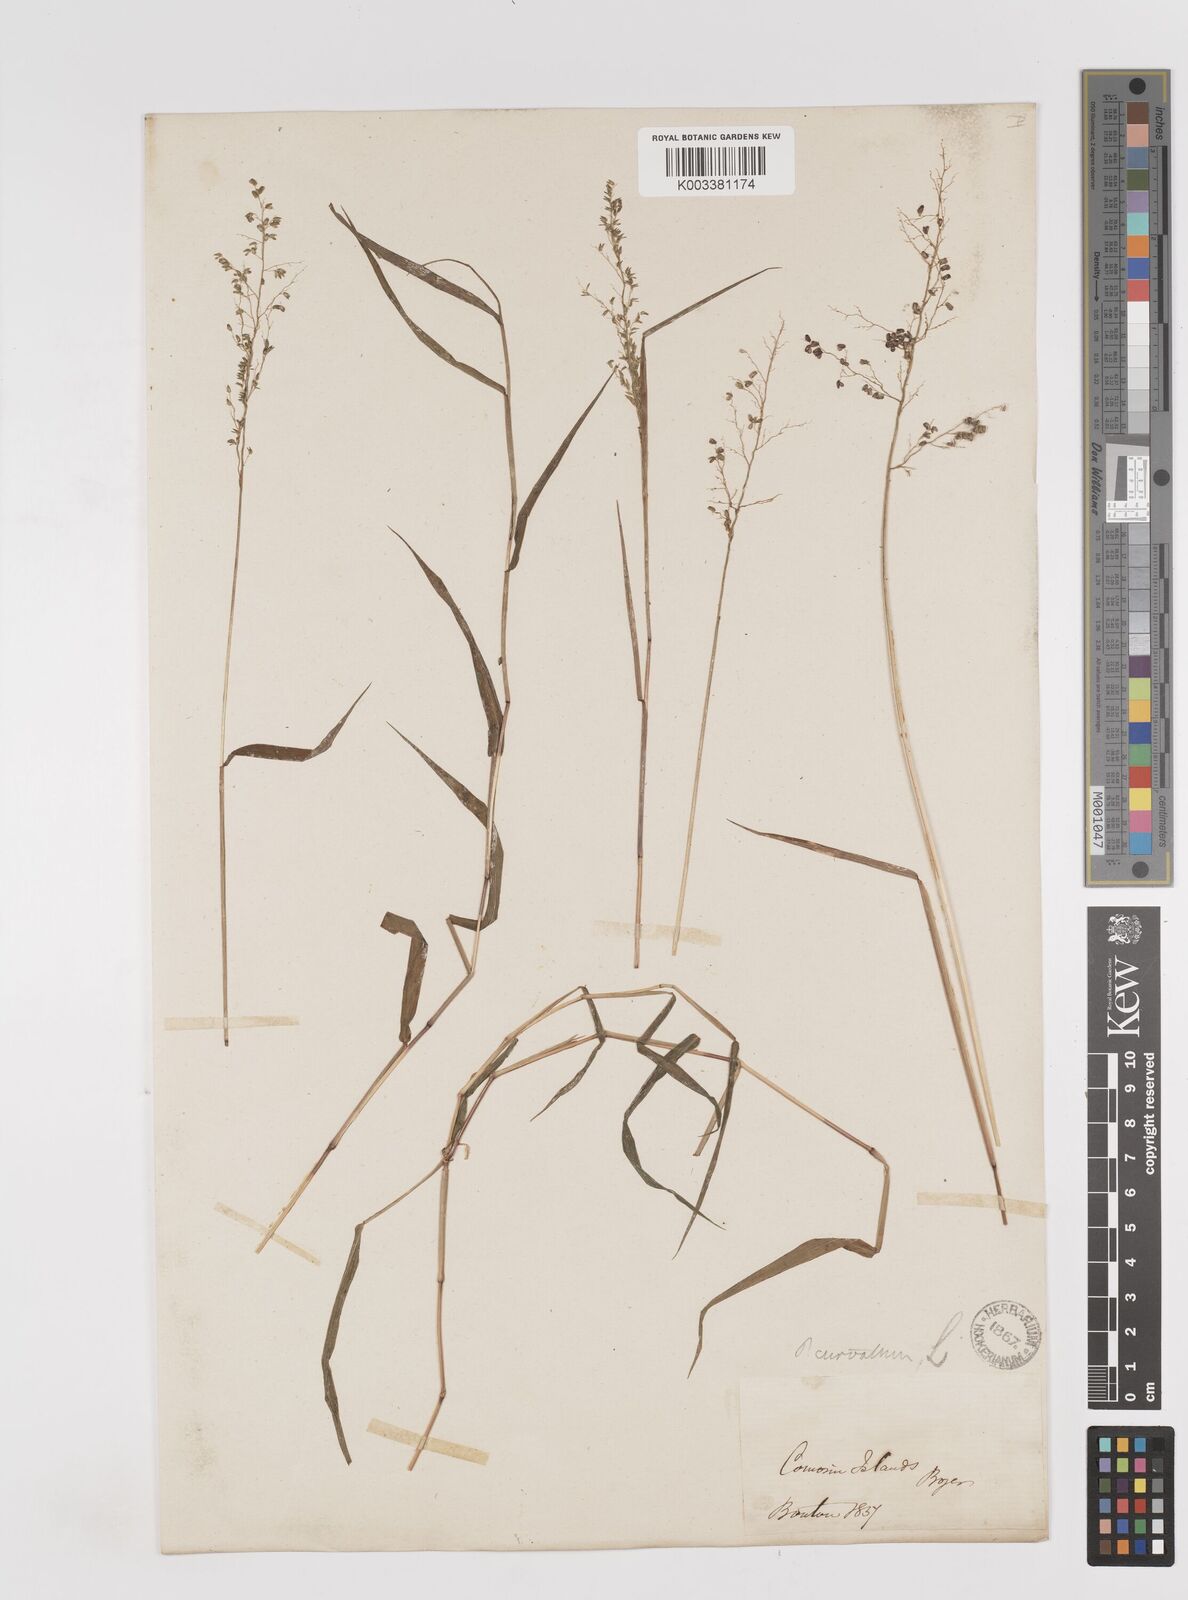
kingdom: Plantae
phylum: Tracheophyta
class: Liliopsida
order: Poales
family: Poaceae
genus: Sacciolepis
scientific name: Sacciolepis curvata
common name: Forest hood grass
